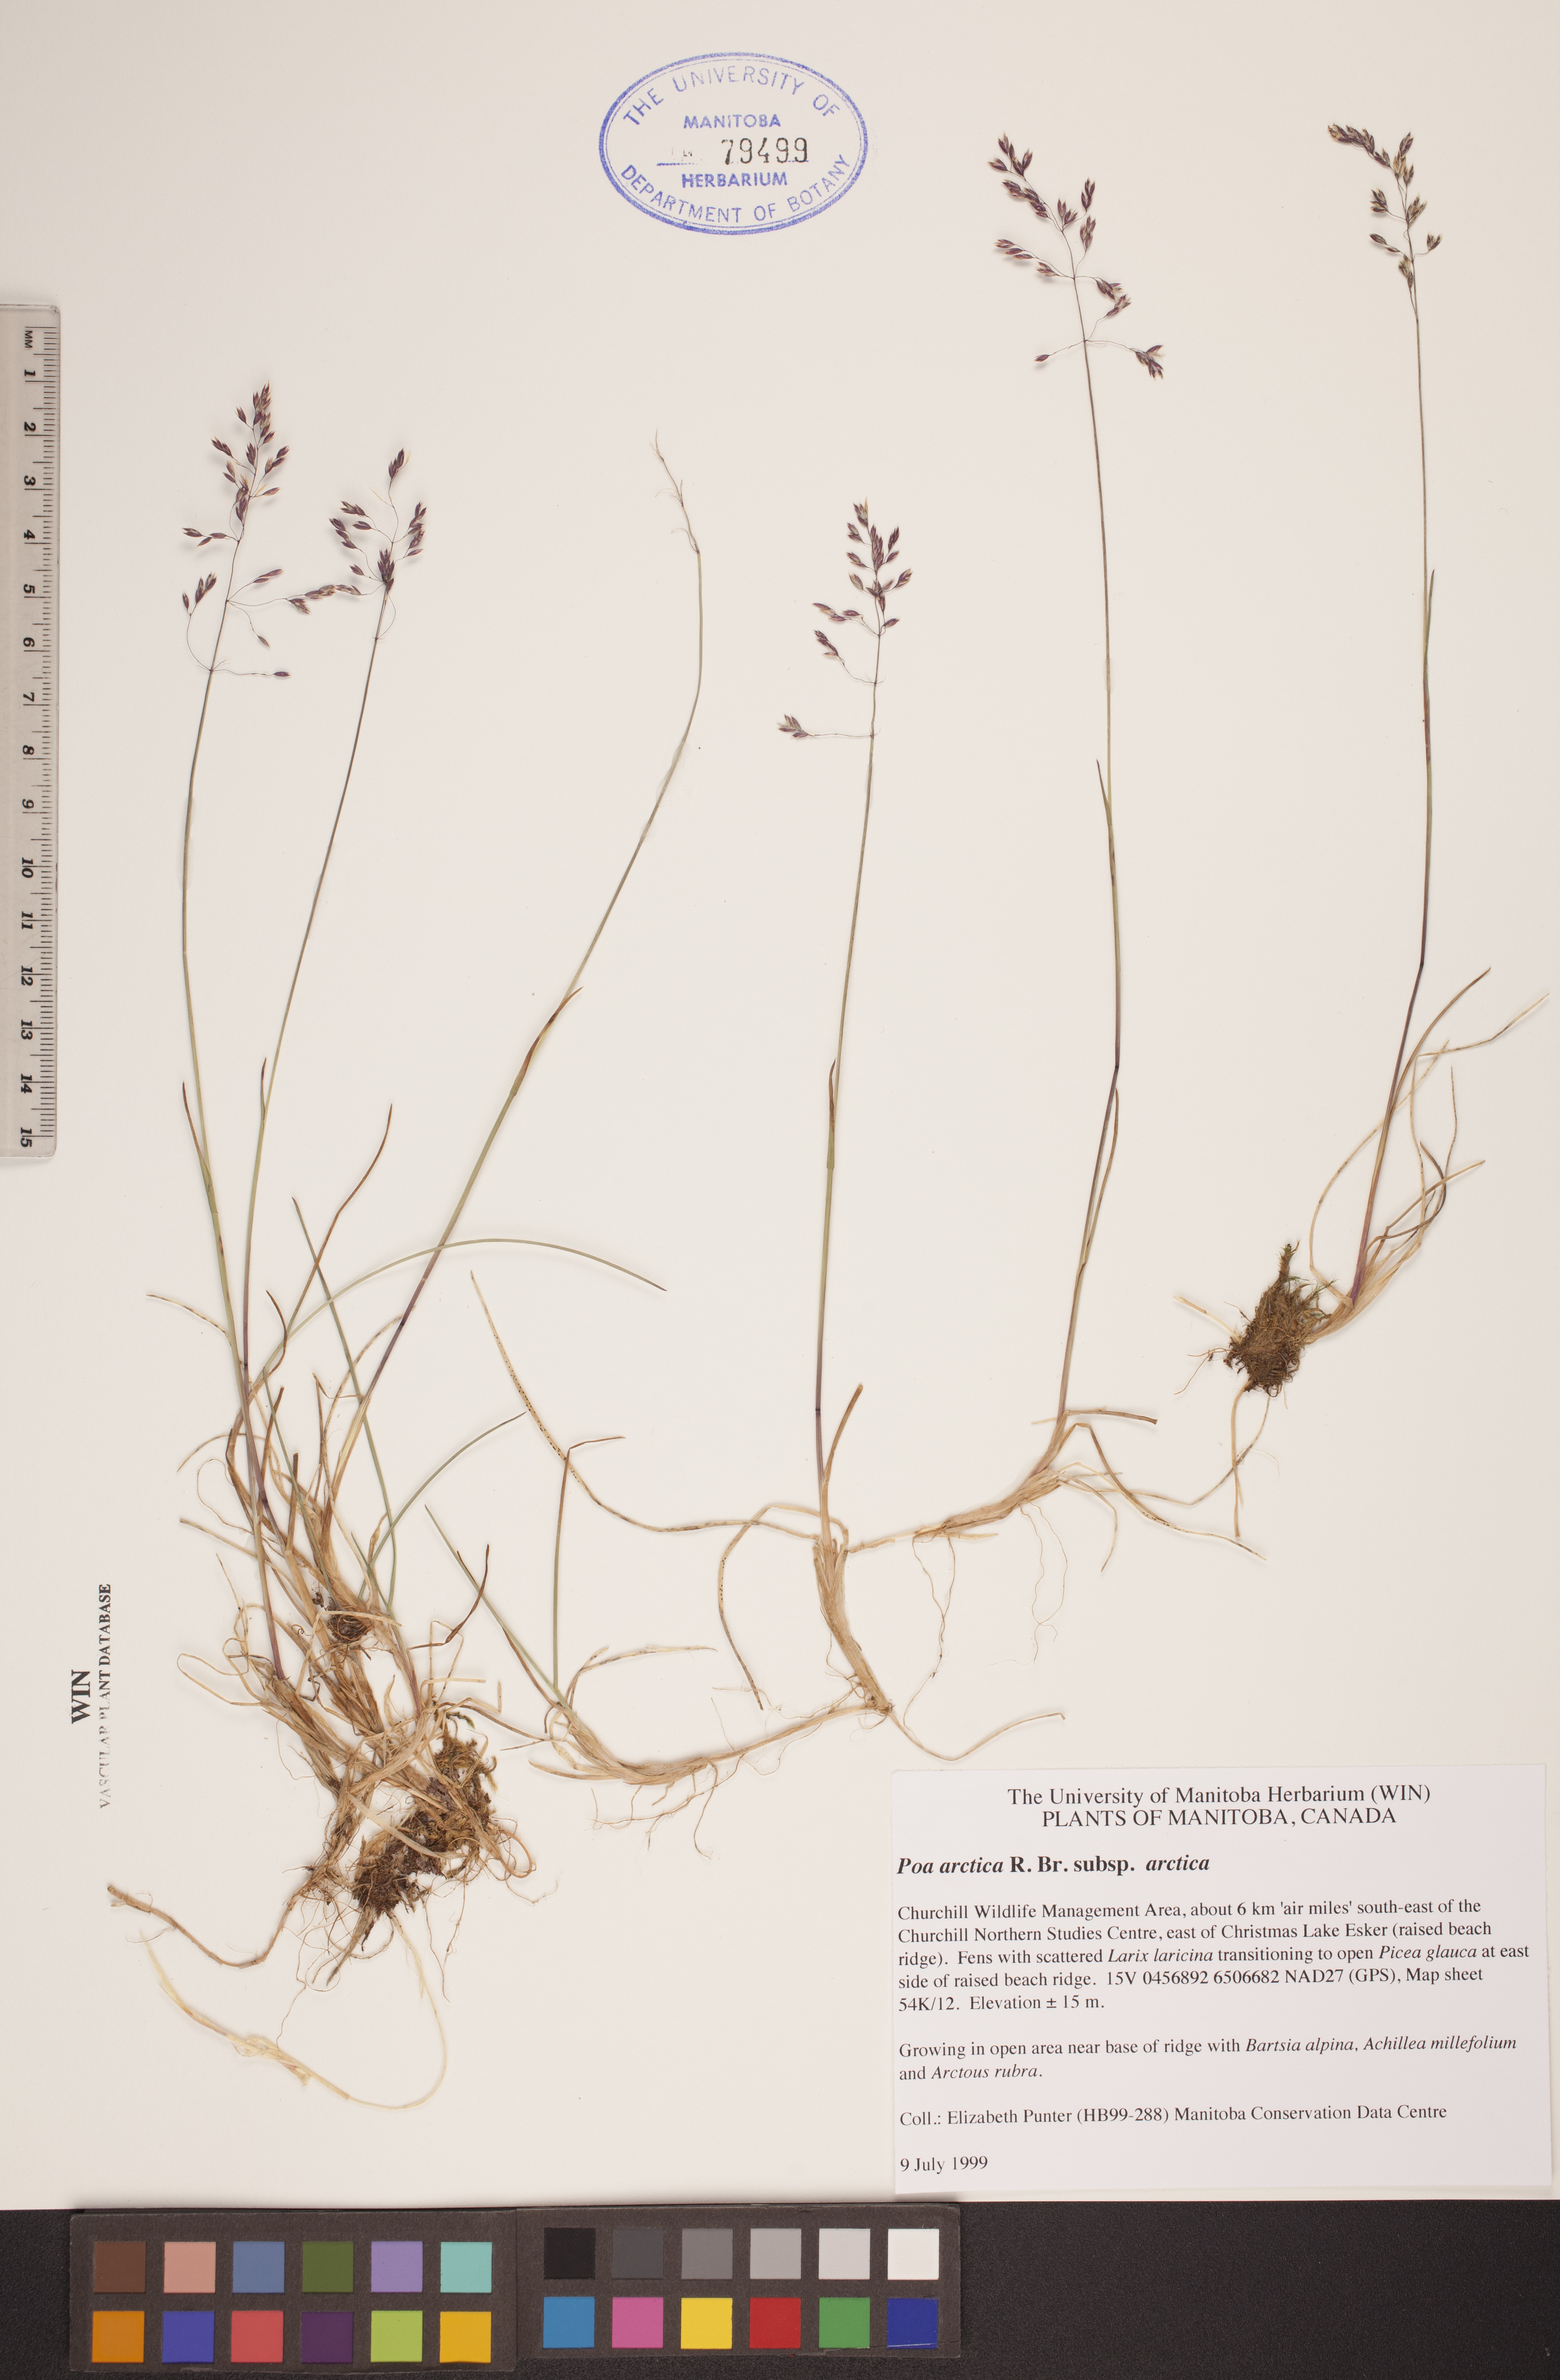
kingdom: Plantae
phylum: Tracheophyta
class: Liliopsida
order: Poales
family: Poaceae
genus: Poa
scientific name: Poa arctica
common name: Arctic bluegrass
